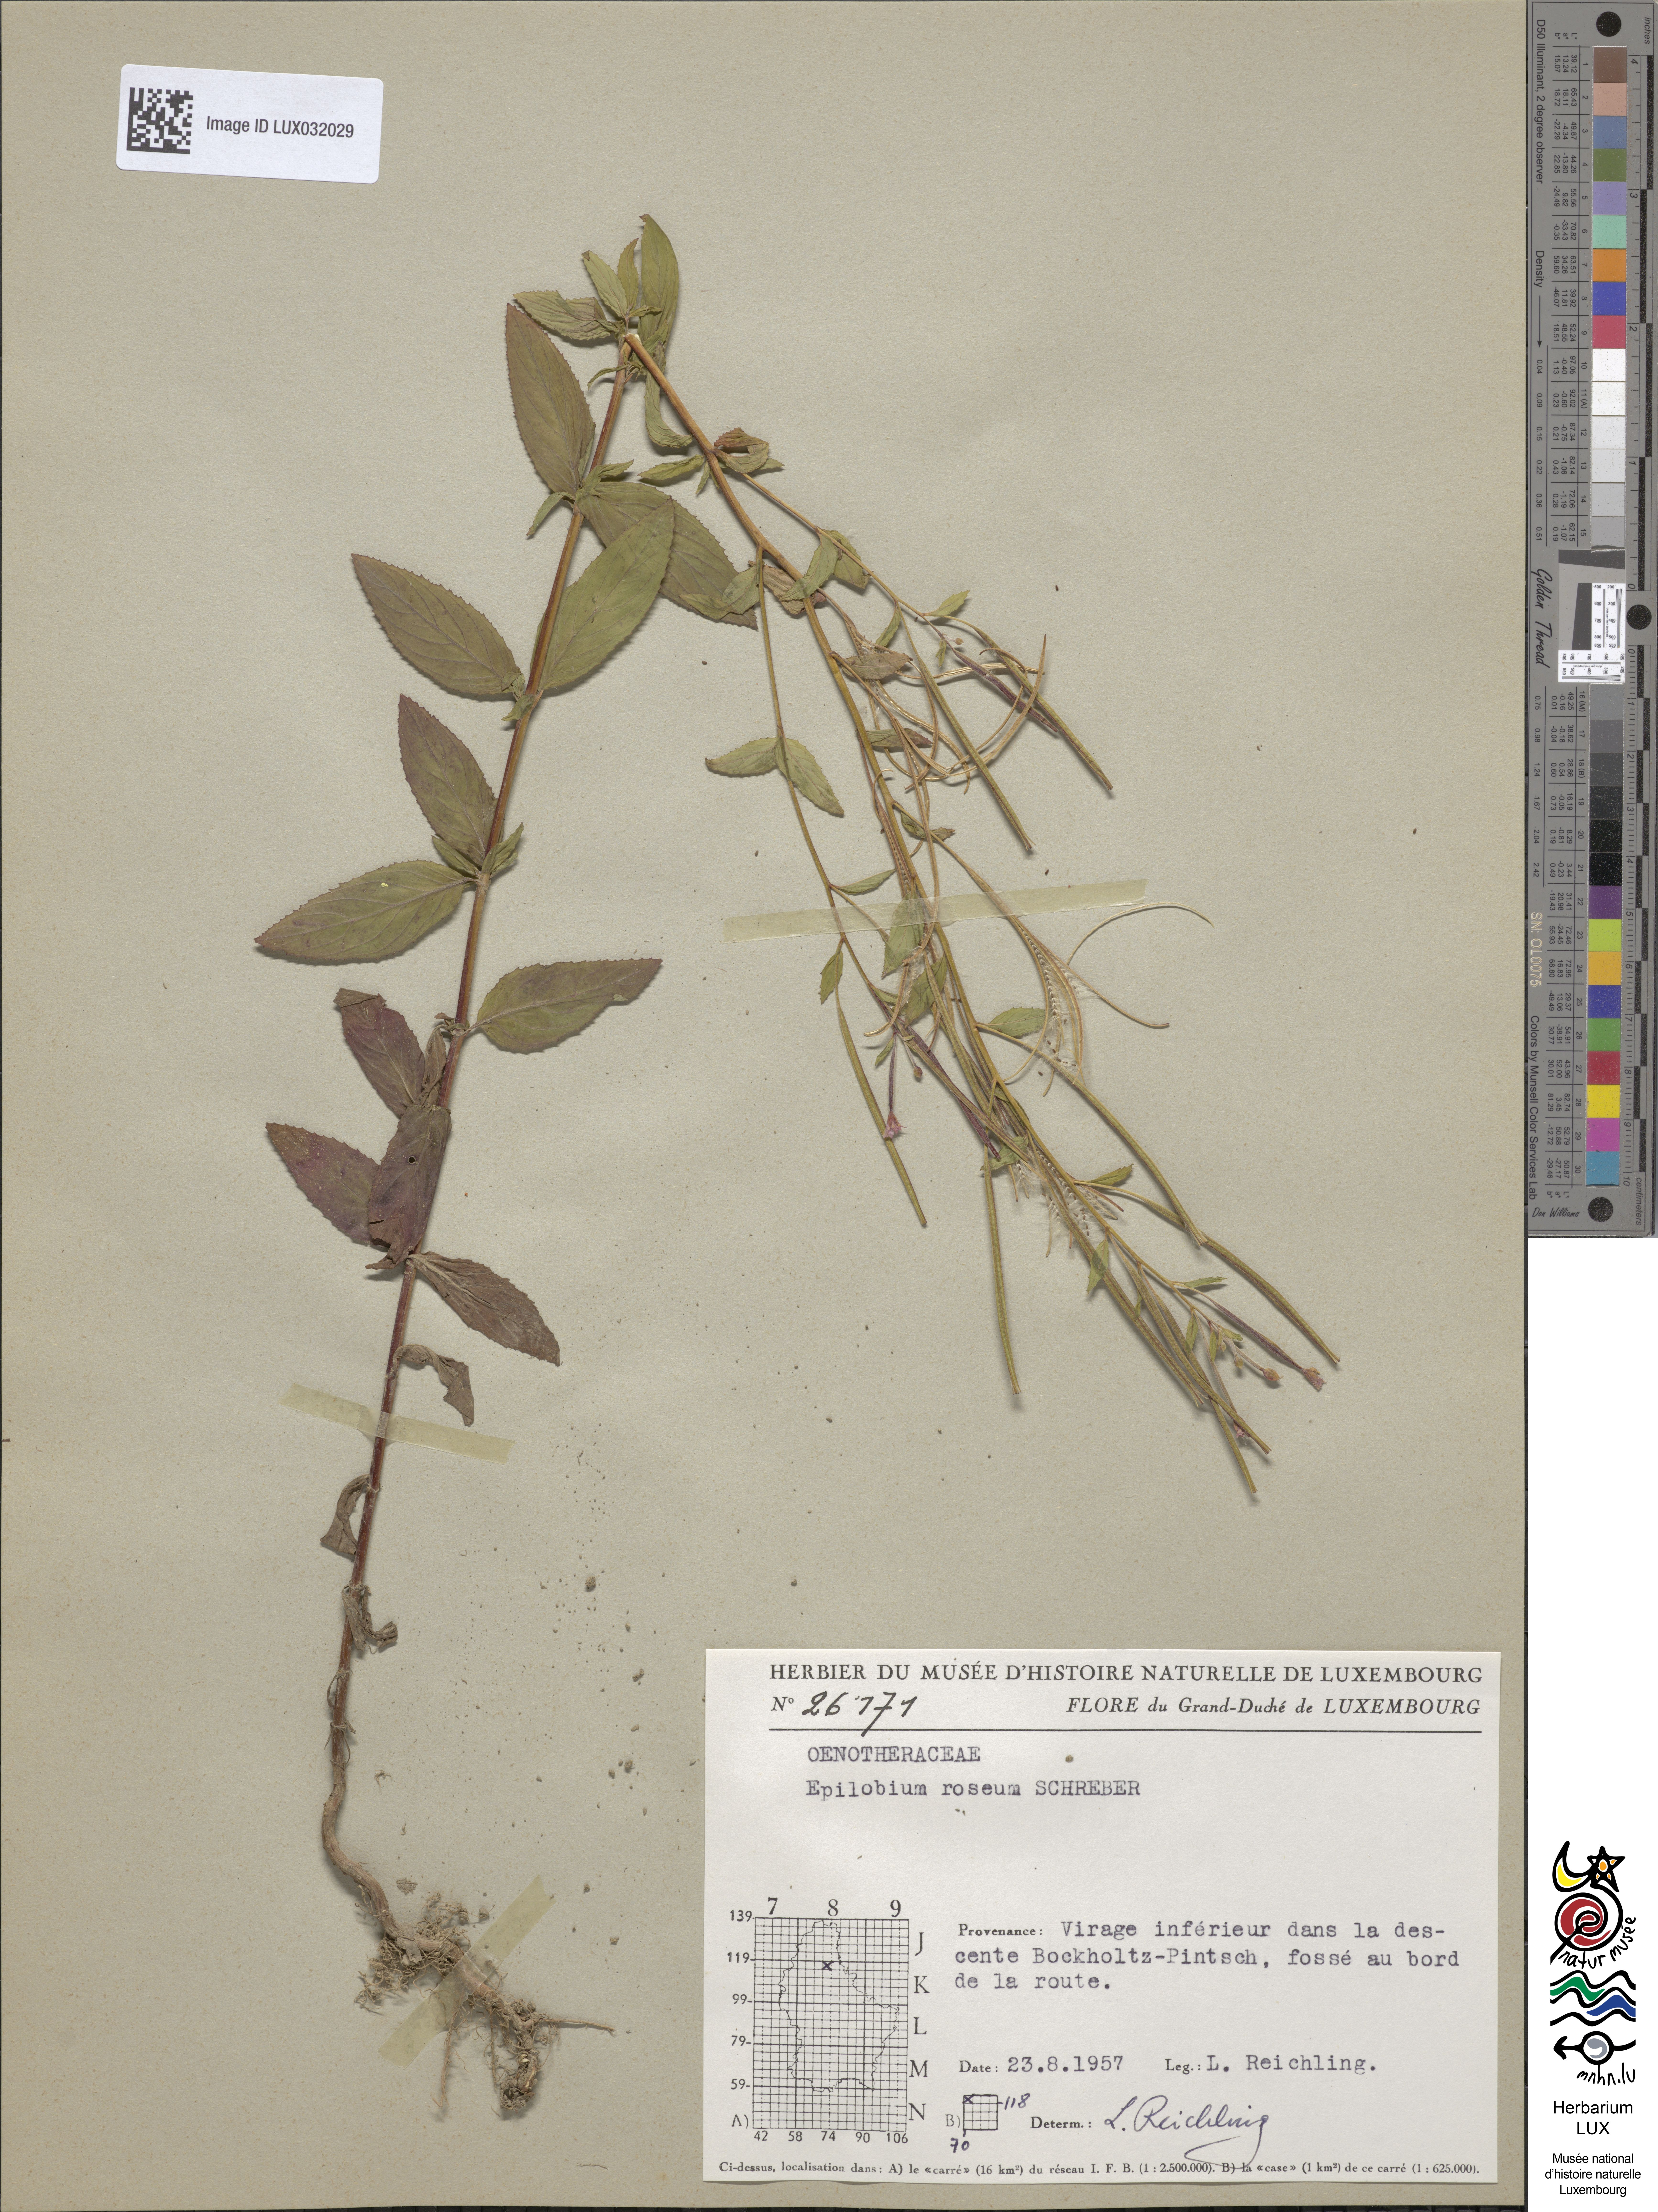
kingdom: Plantae
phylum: Tracheophyta
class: Magnoliopsida
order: Myrtales
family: Onagraceae
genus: Epilobium
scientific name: Epilobium roseum
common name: Pale willowherb
